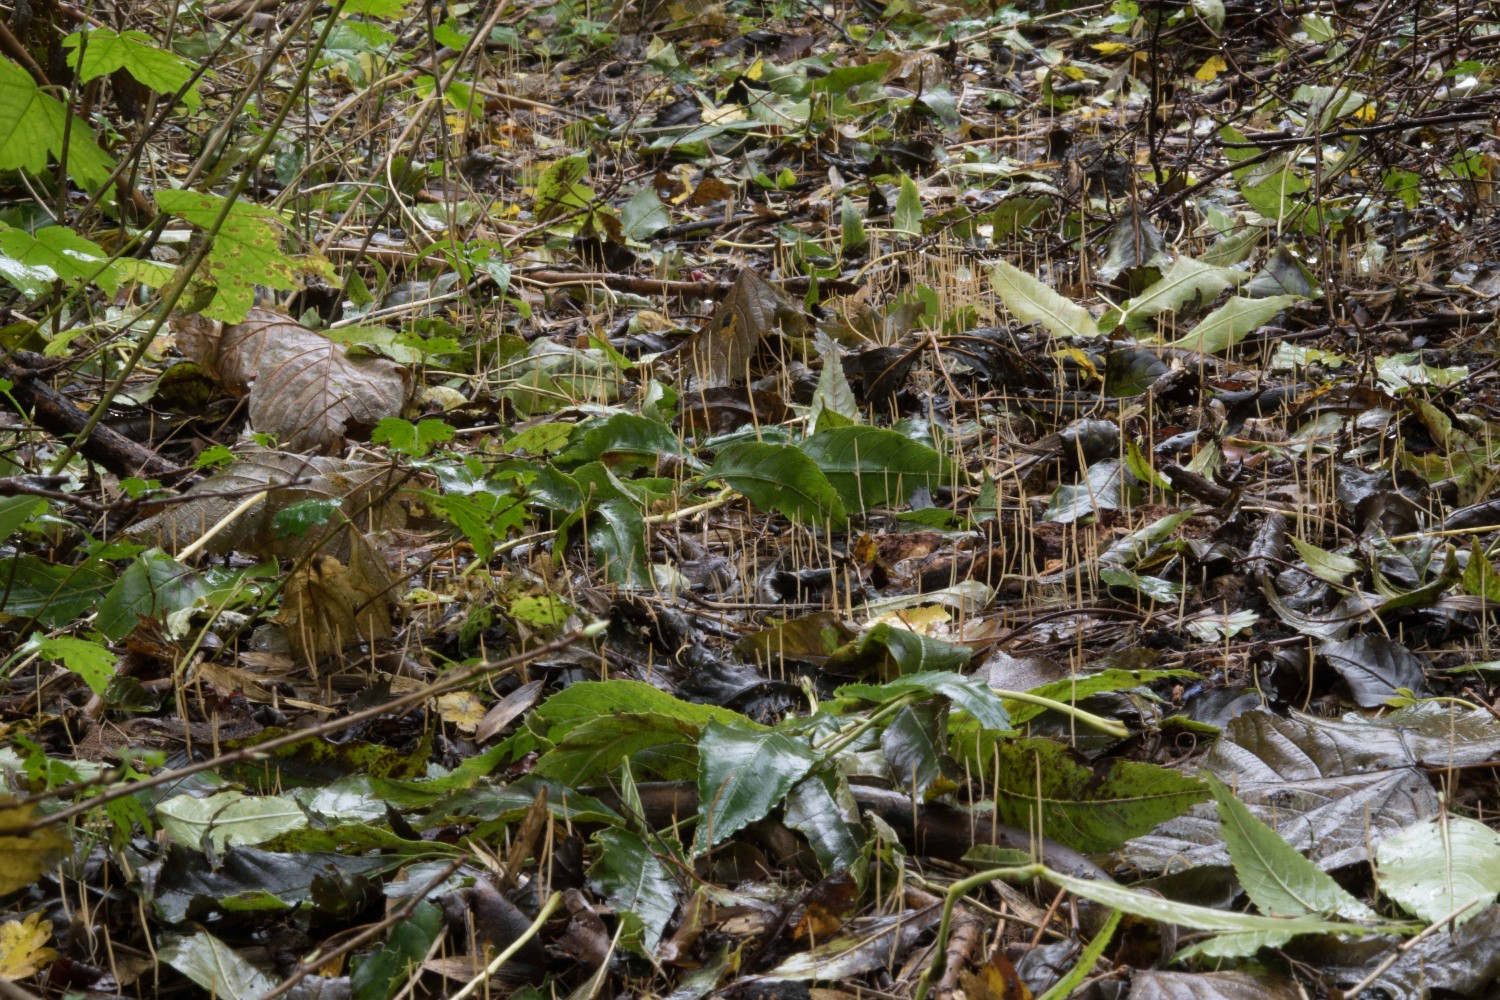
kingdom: Fungi
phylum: Basidiomycota
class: Agaricomycetes
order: Agaricales
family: Typhulaceae
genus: Typhula
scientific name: Typhula juncea
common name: trådagtig rørkølle
